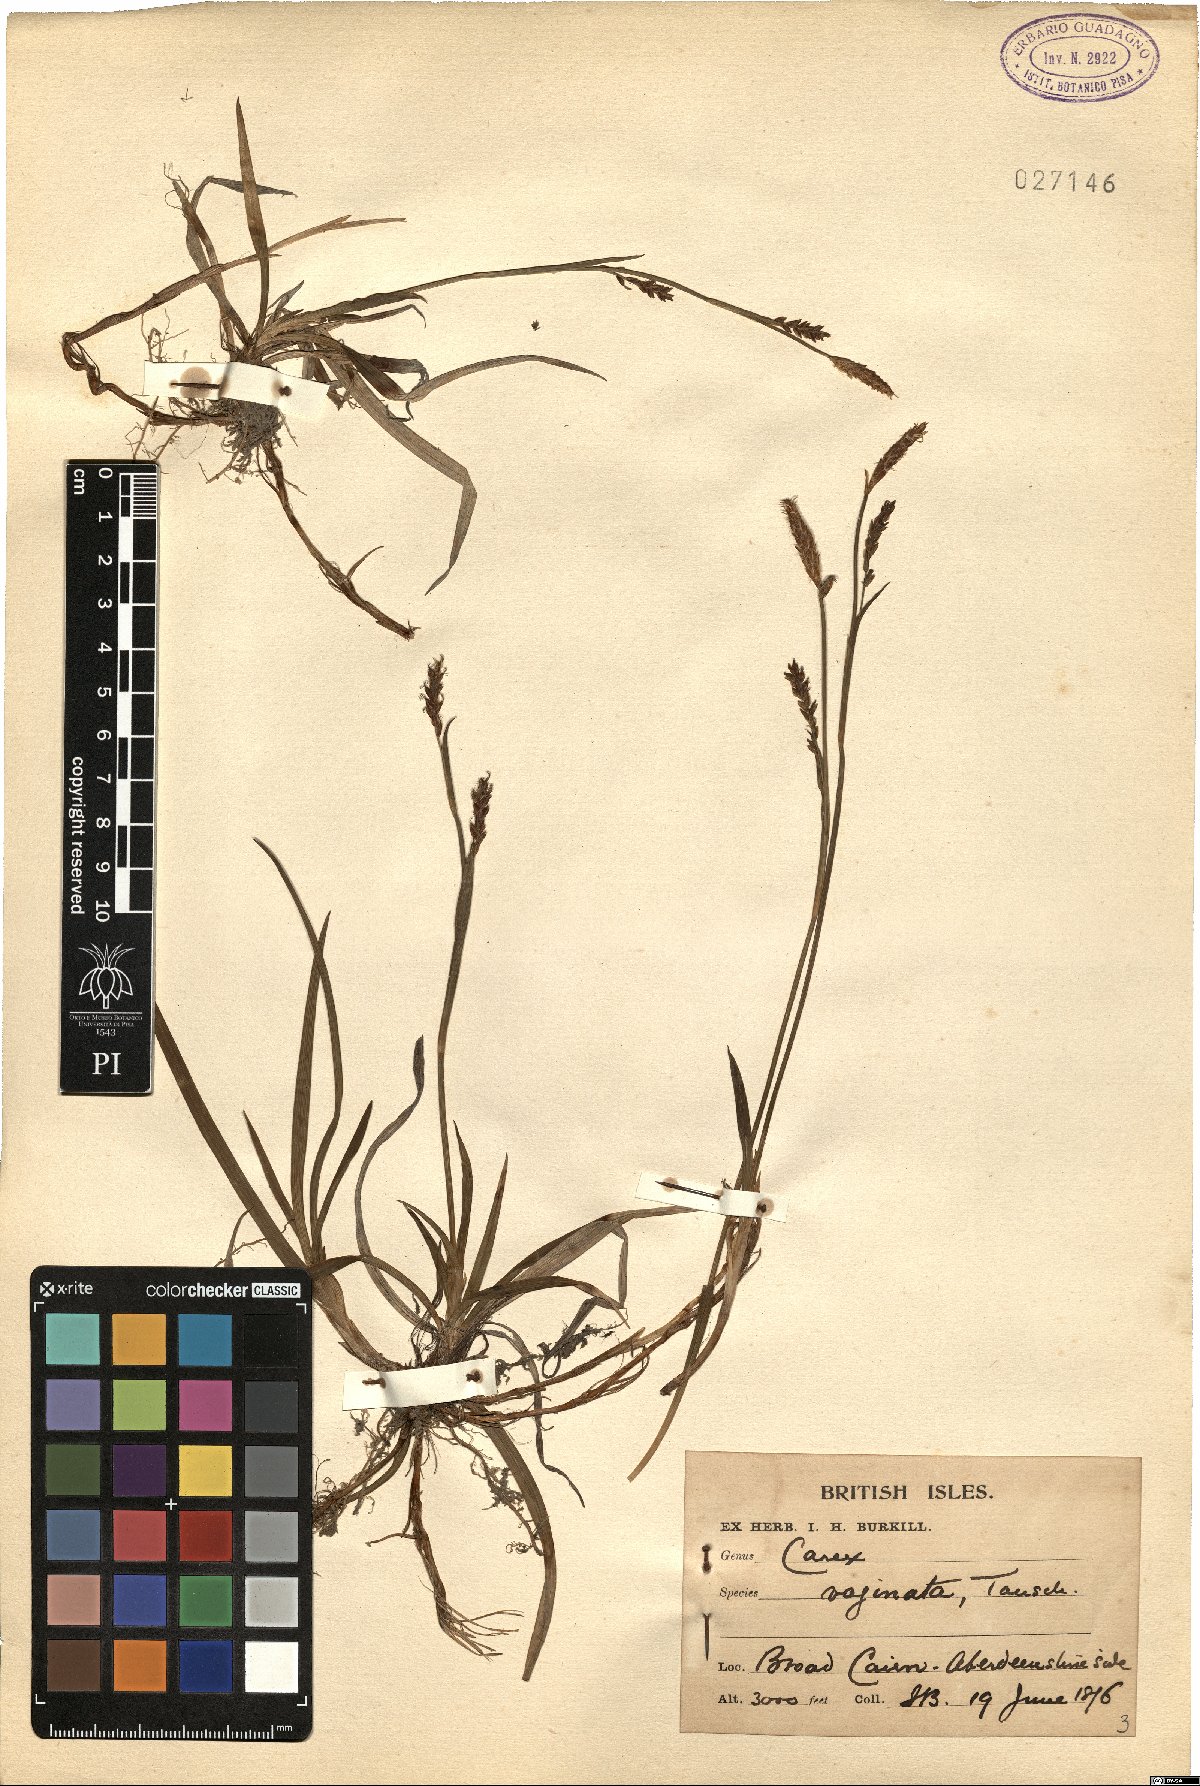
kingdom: Plantae
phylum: Tracheophyta
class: Liliopsida
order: Poales
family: Cyperaceae
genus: Carex
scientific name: Carex vaginata
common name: Sheathed sedge
